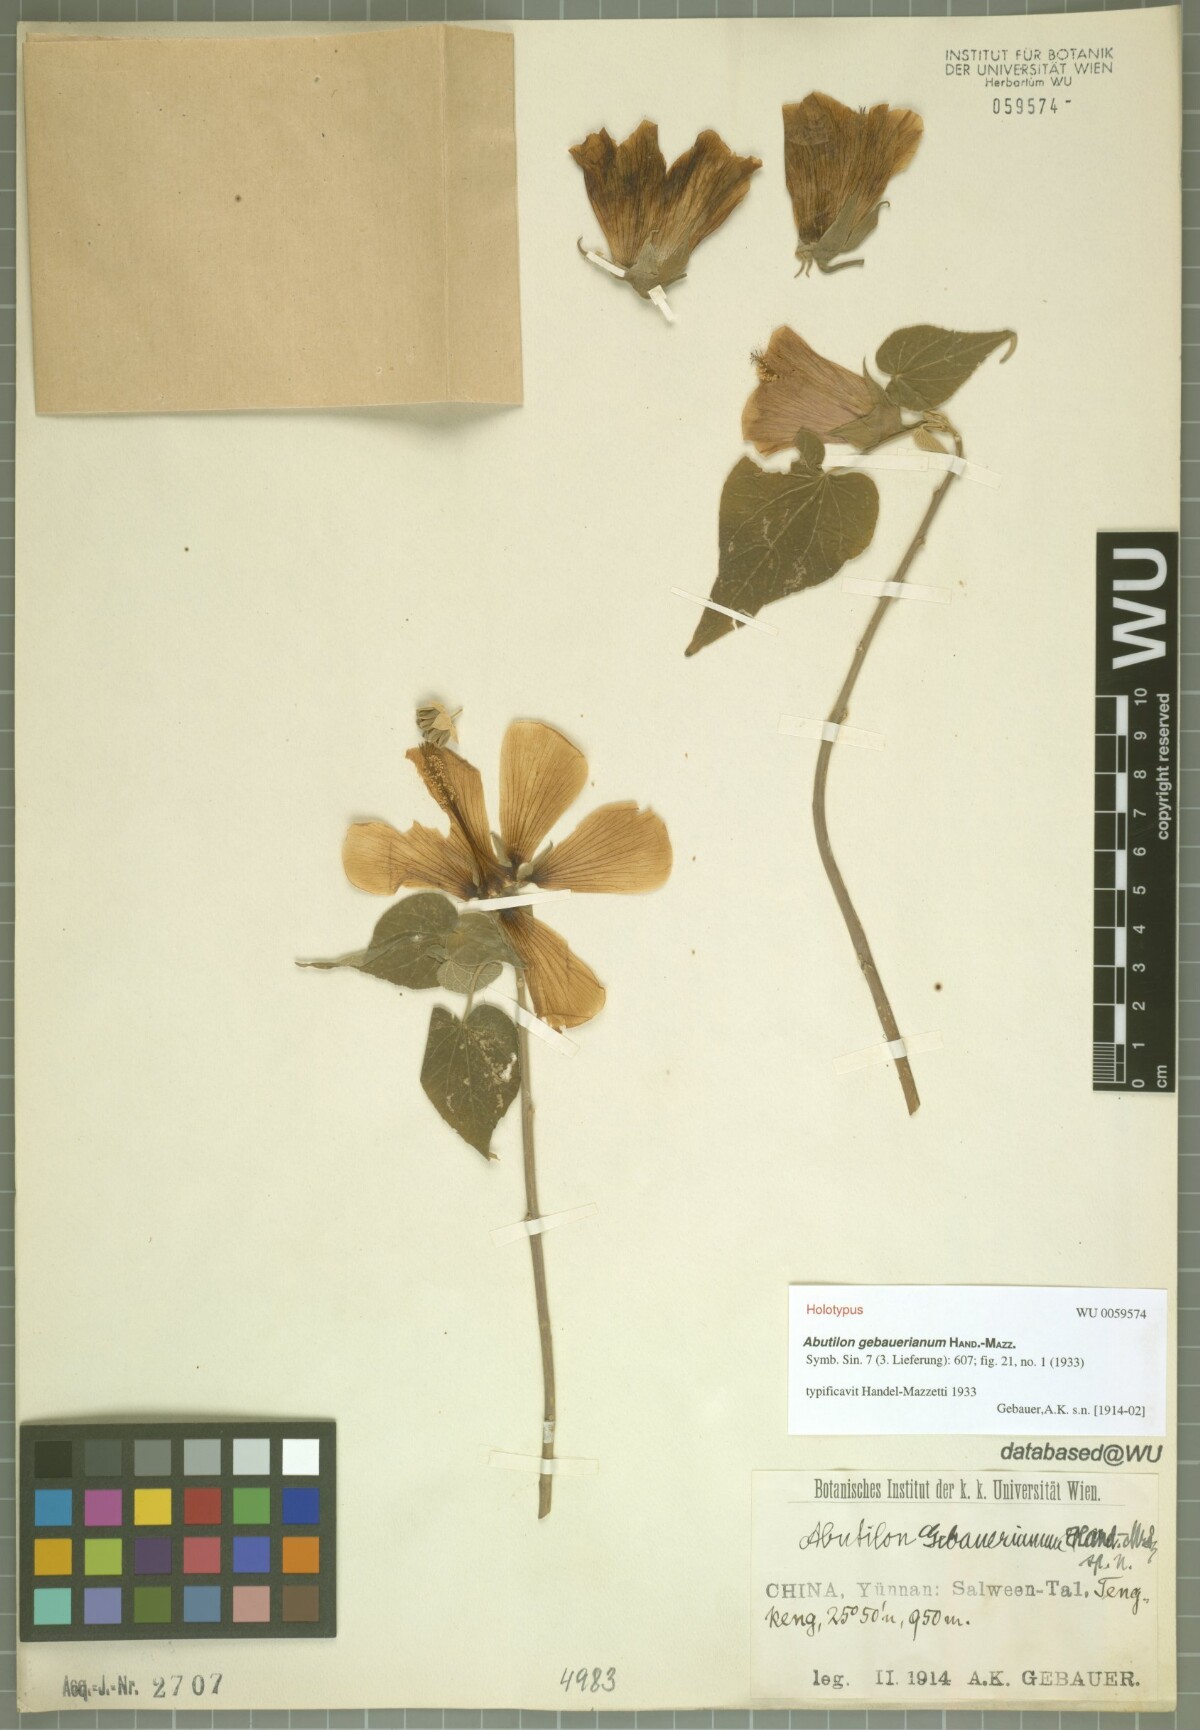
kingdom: Plantae
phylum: Tracheophyta
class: Magnoliopsida
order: Malvales
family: Malvaceae
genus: Abutilon
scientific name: Abutilon gebauerianum
